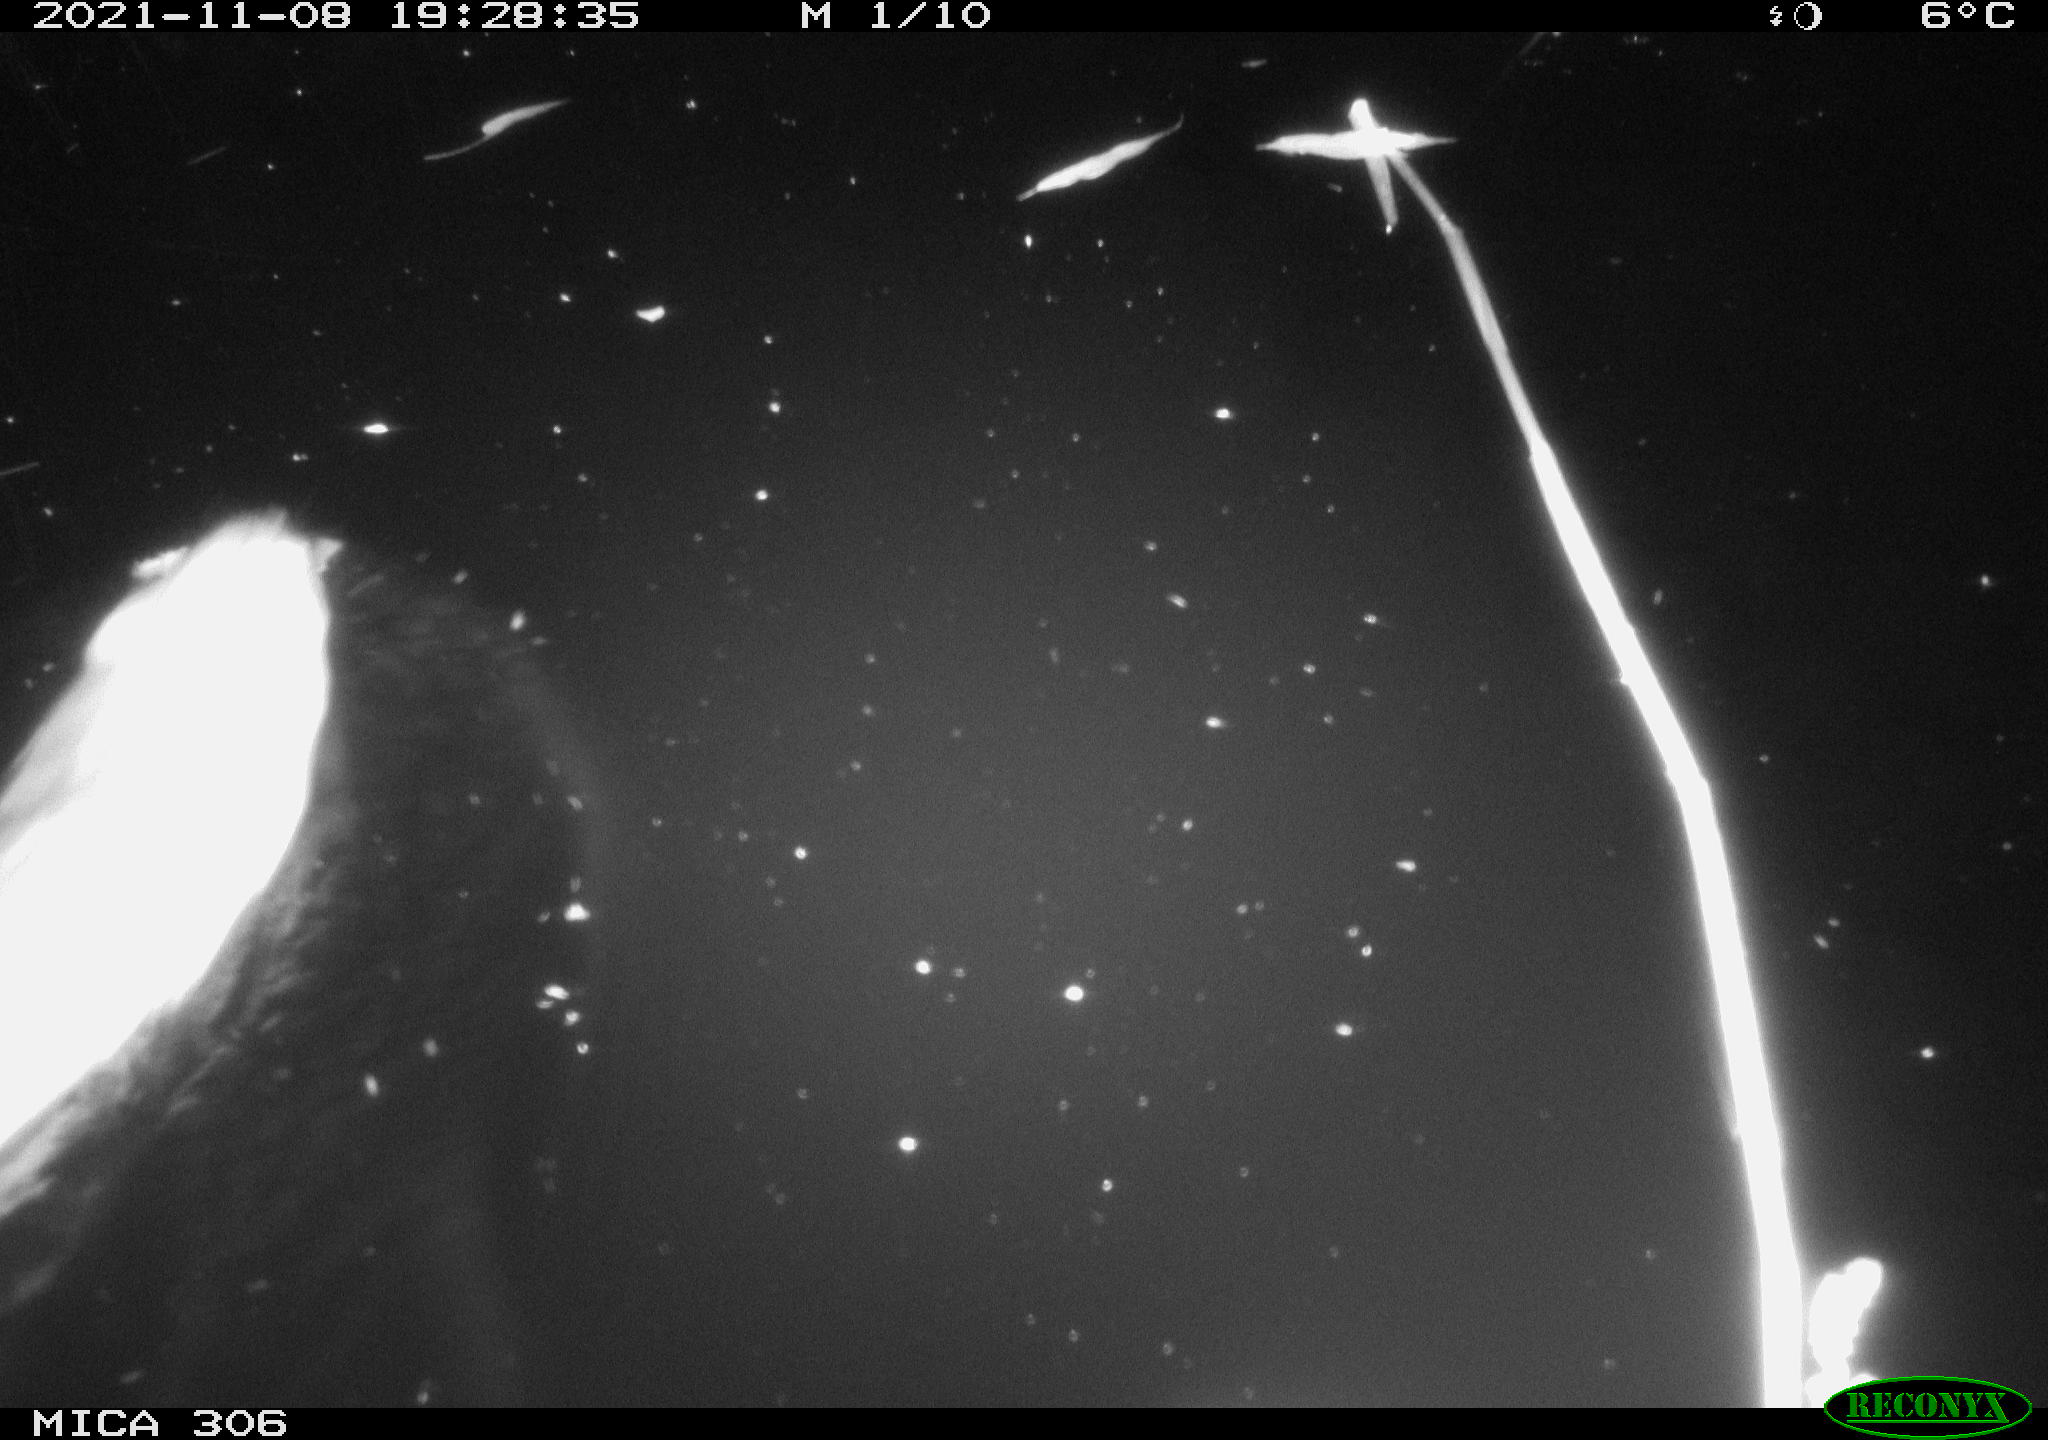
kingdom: Animalia
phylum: Chordata
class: Mammalia
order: Rodentia
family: Cricetidae
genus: Ondatra
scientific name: Ondatra zibethicus
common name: Muskrat
